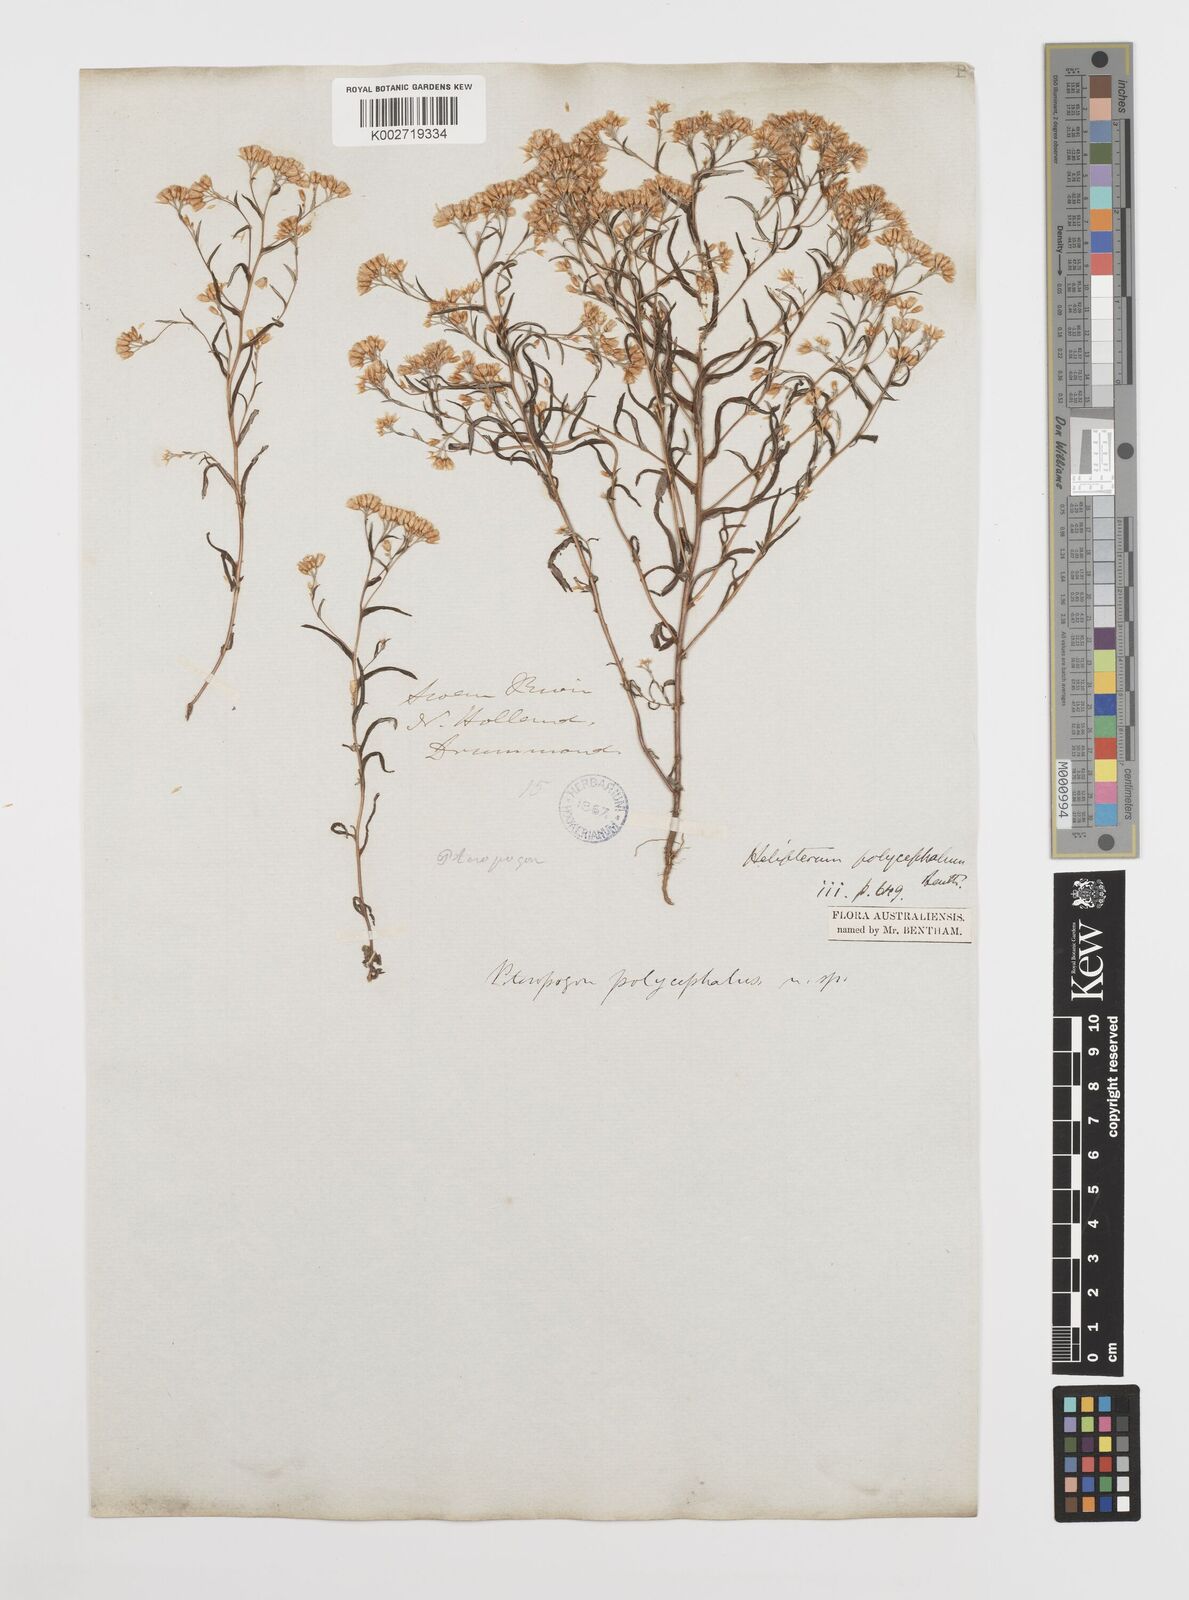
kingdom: Plantae
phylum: Tracheophyta
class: Magnoliopsida
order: Asterales
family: Asteraceae
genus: Rhodanthe
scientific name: Rhodanthe polycephala
